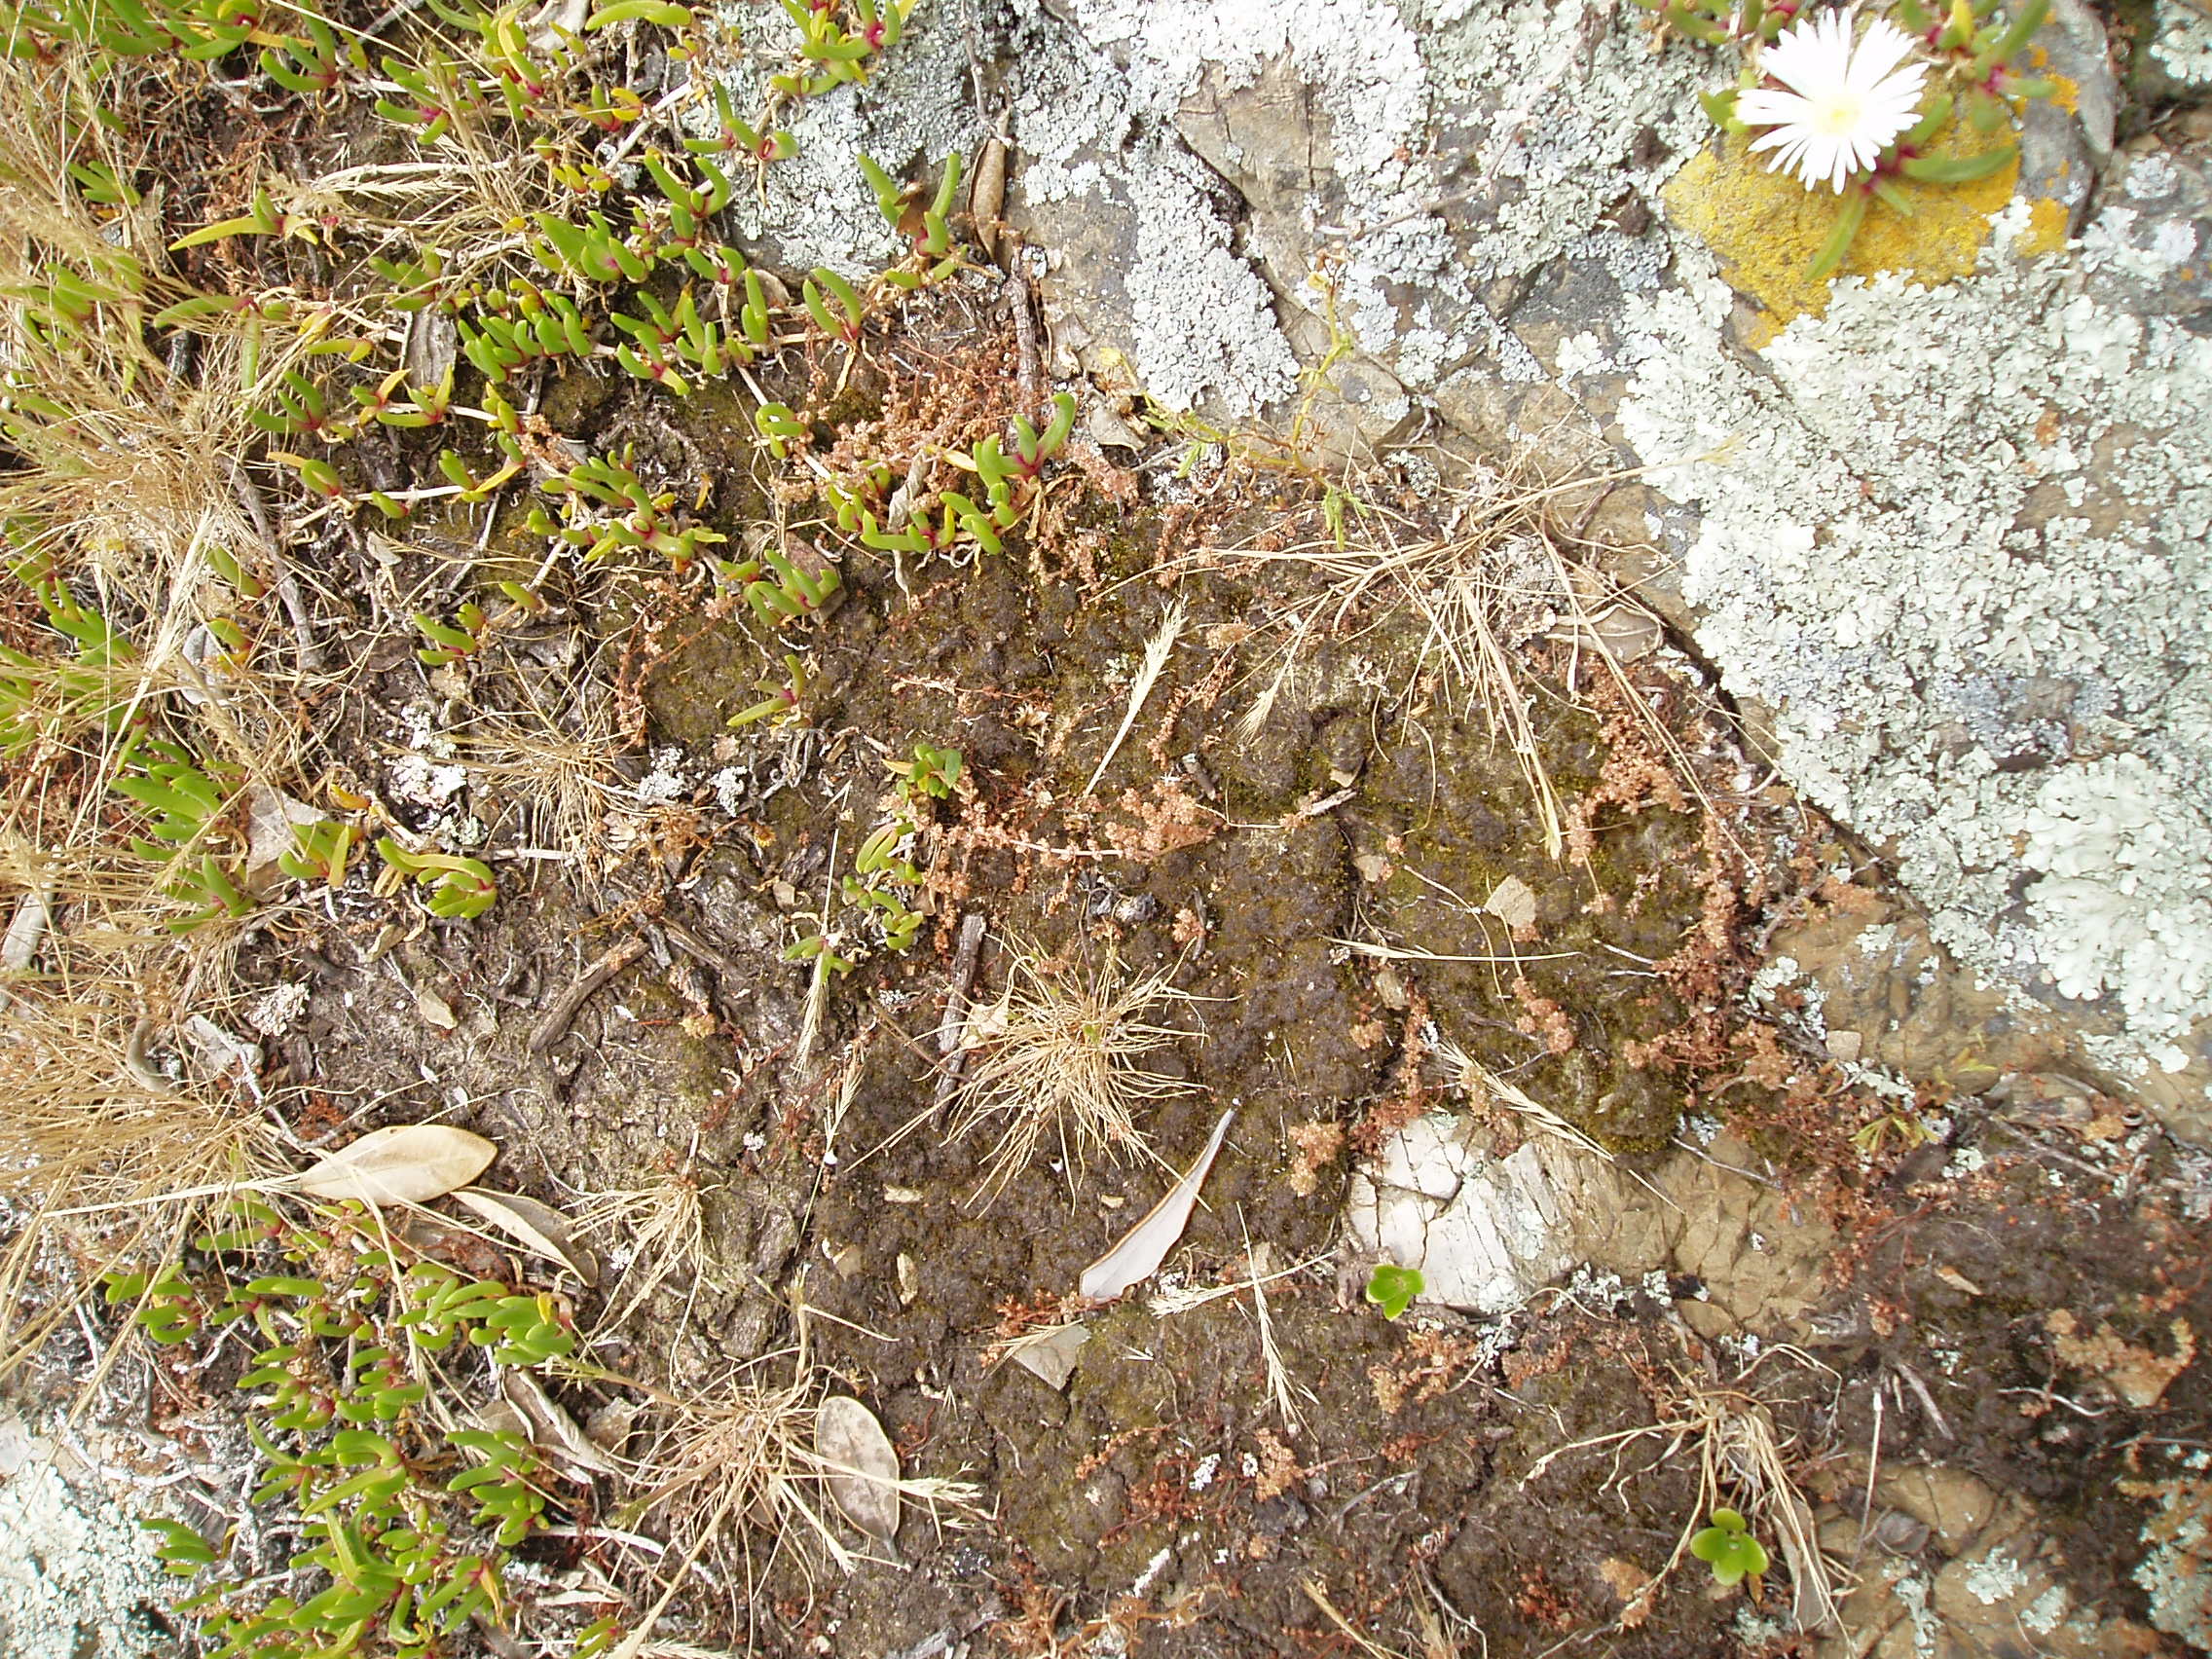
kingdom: Plantae
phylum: Tracheophyta
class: Magnoliopsida
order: Saxifragales
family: Crassulaceae
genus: Crassula
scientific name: Crassula sieberiana
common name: Siberian pygmyweed
